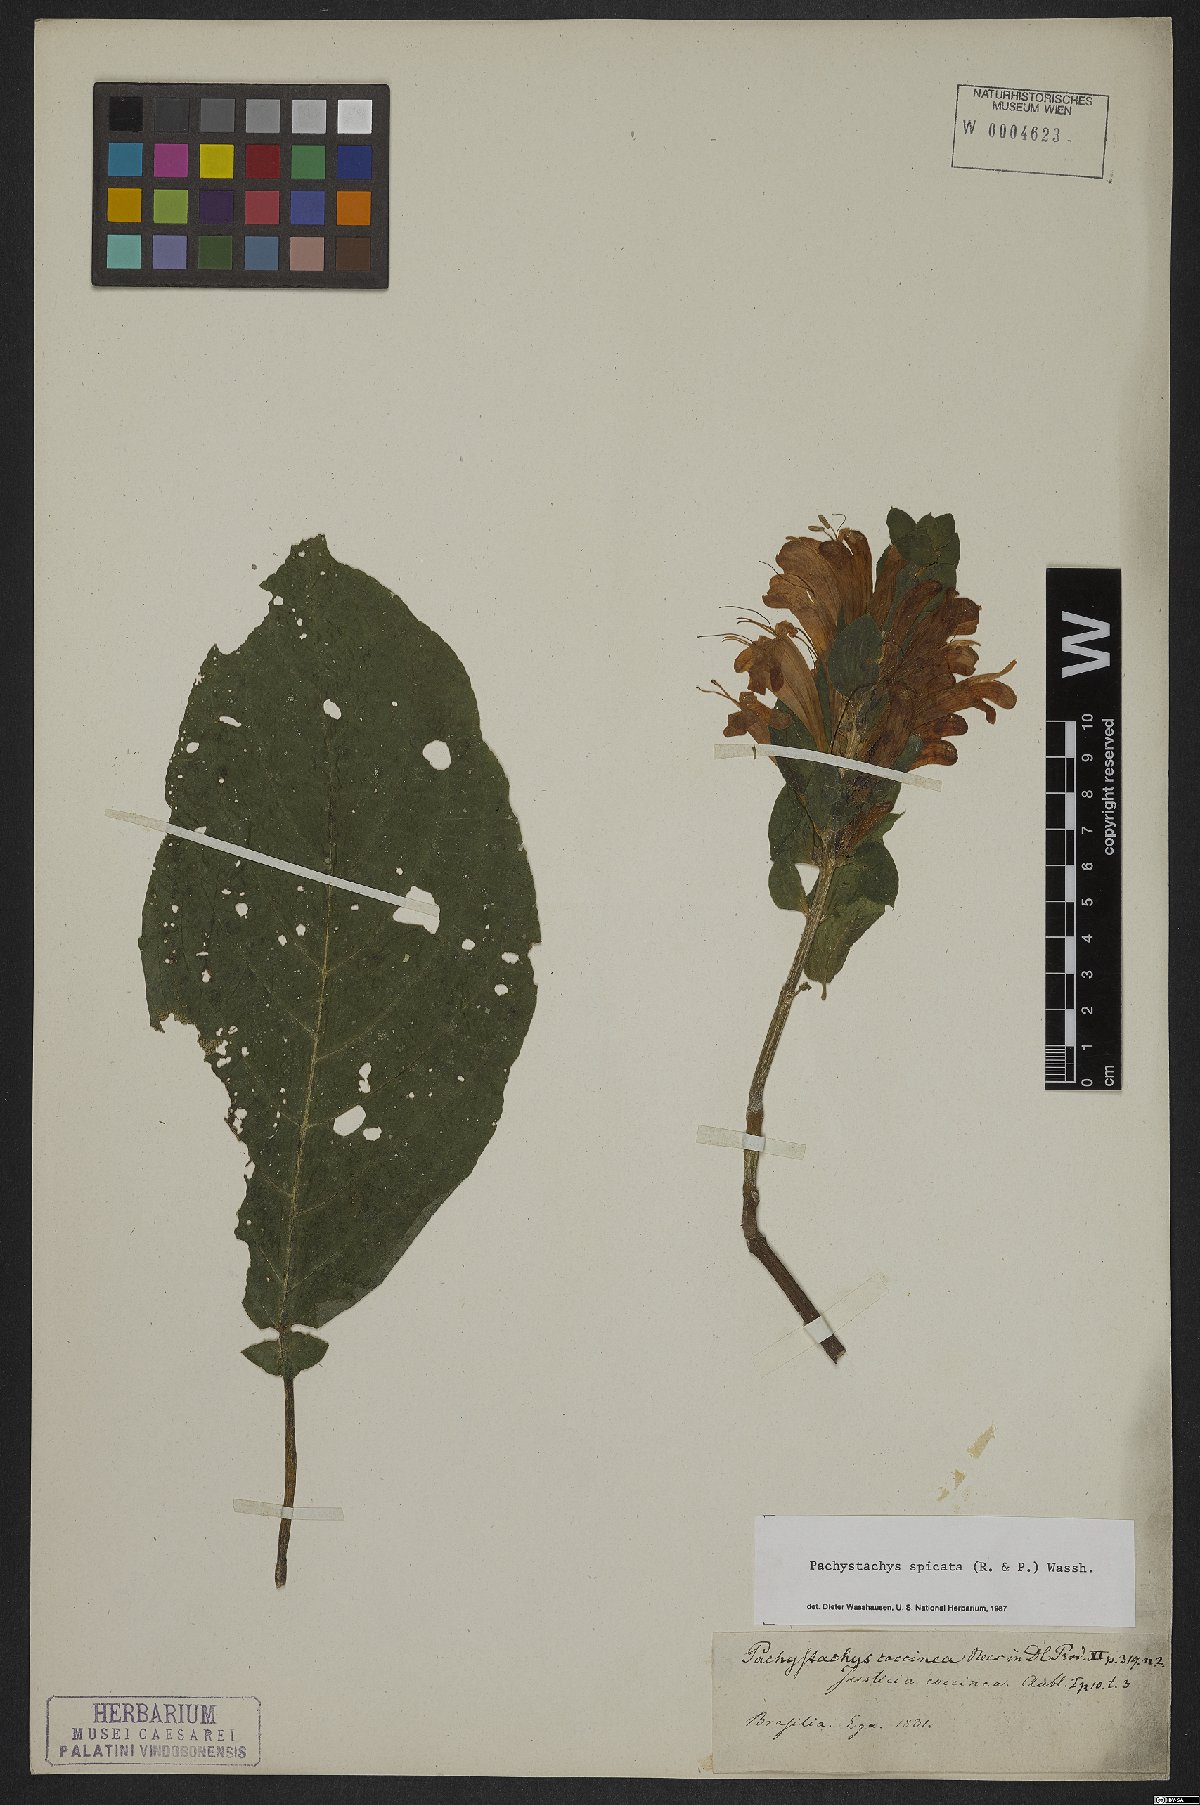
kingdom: Plantae
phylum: Tracheophyta
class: Magnoliopsida
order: Lamiales
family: Acanthaceae
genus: Pachystachys
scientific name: Pachystachys spicata
